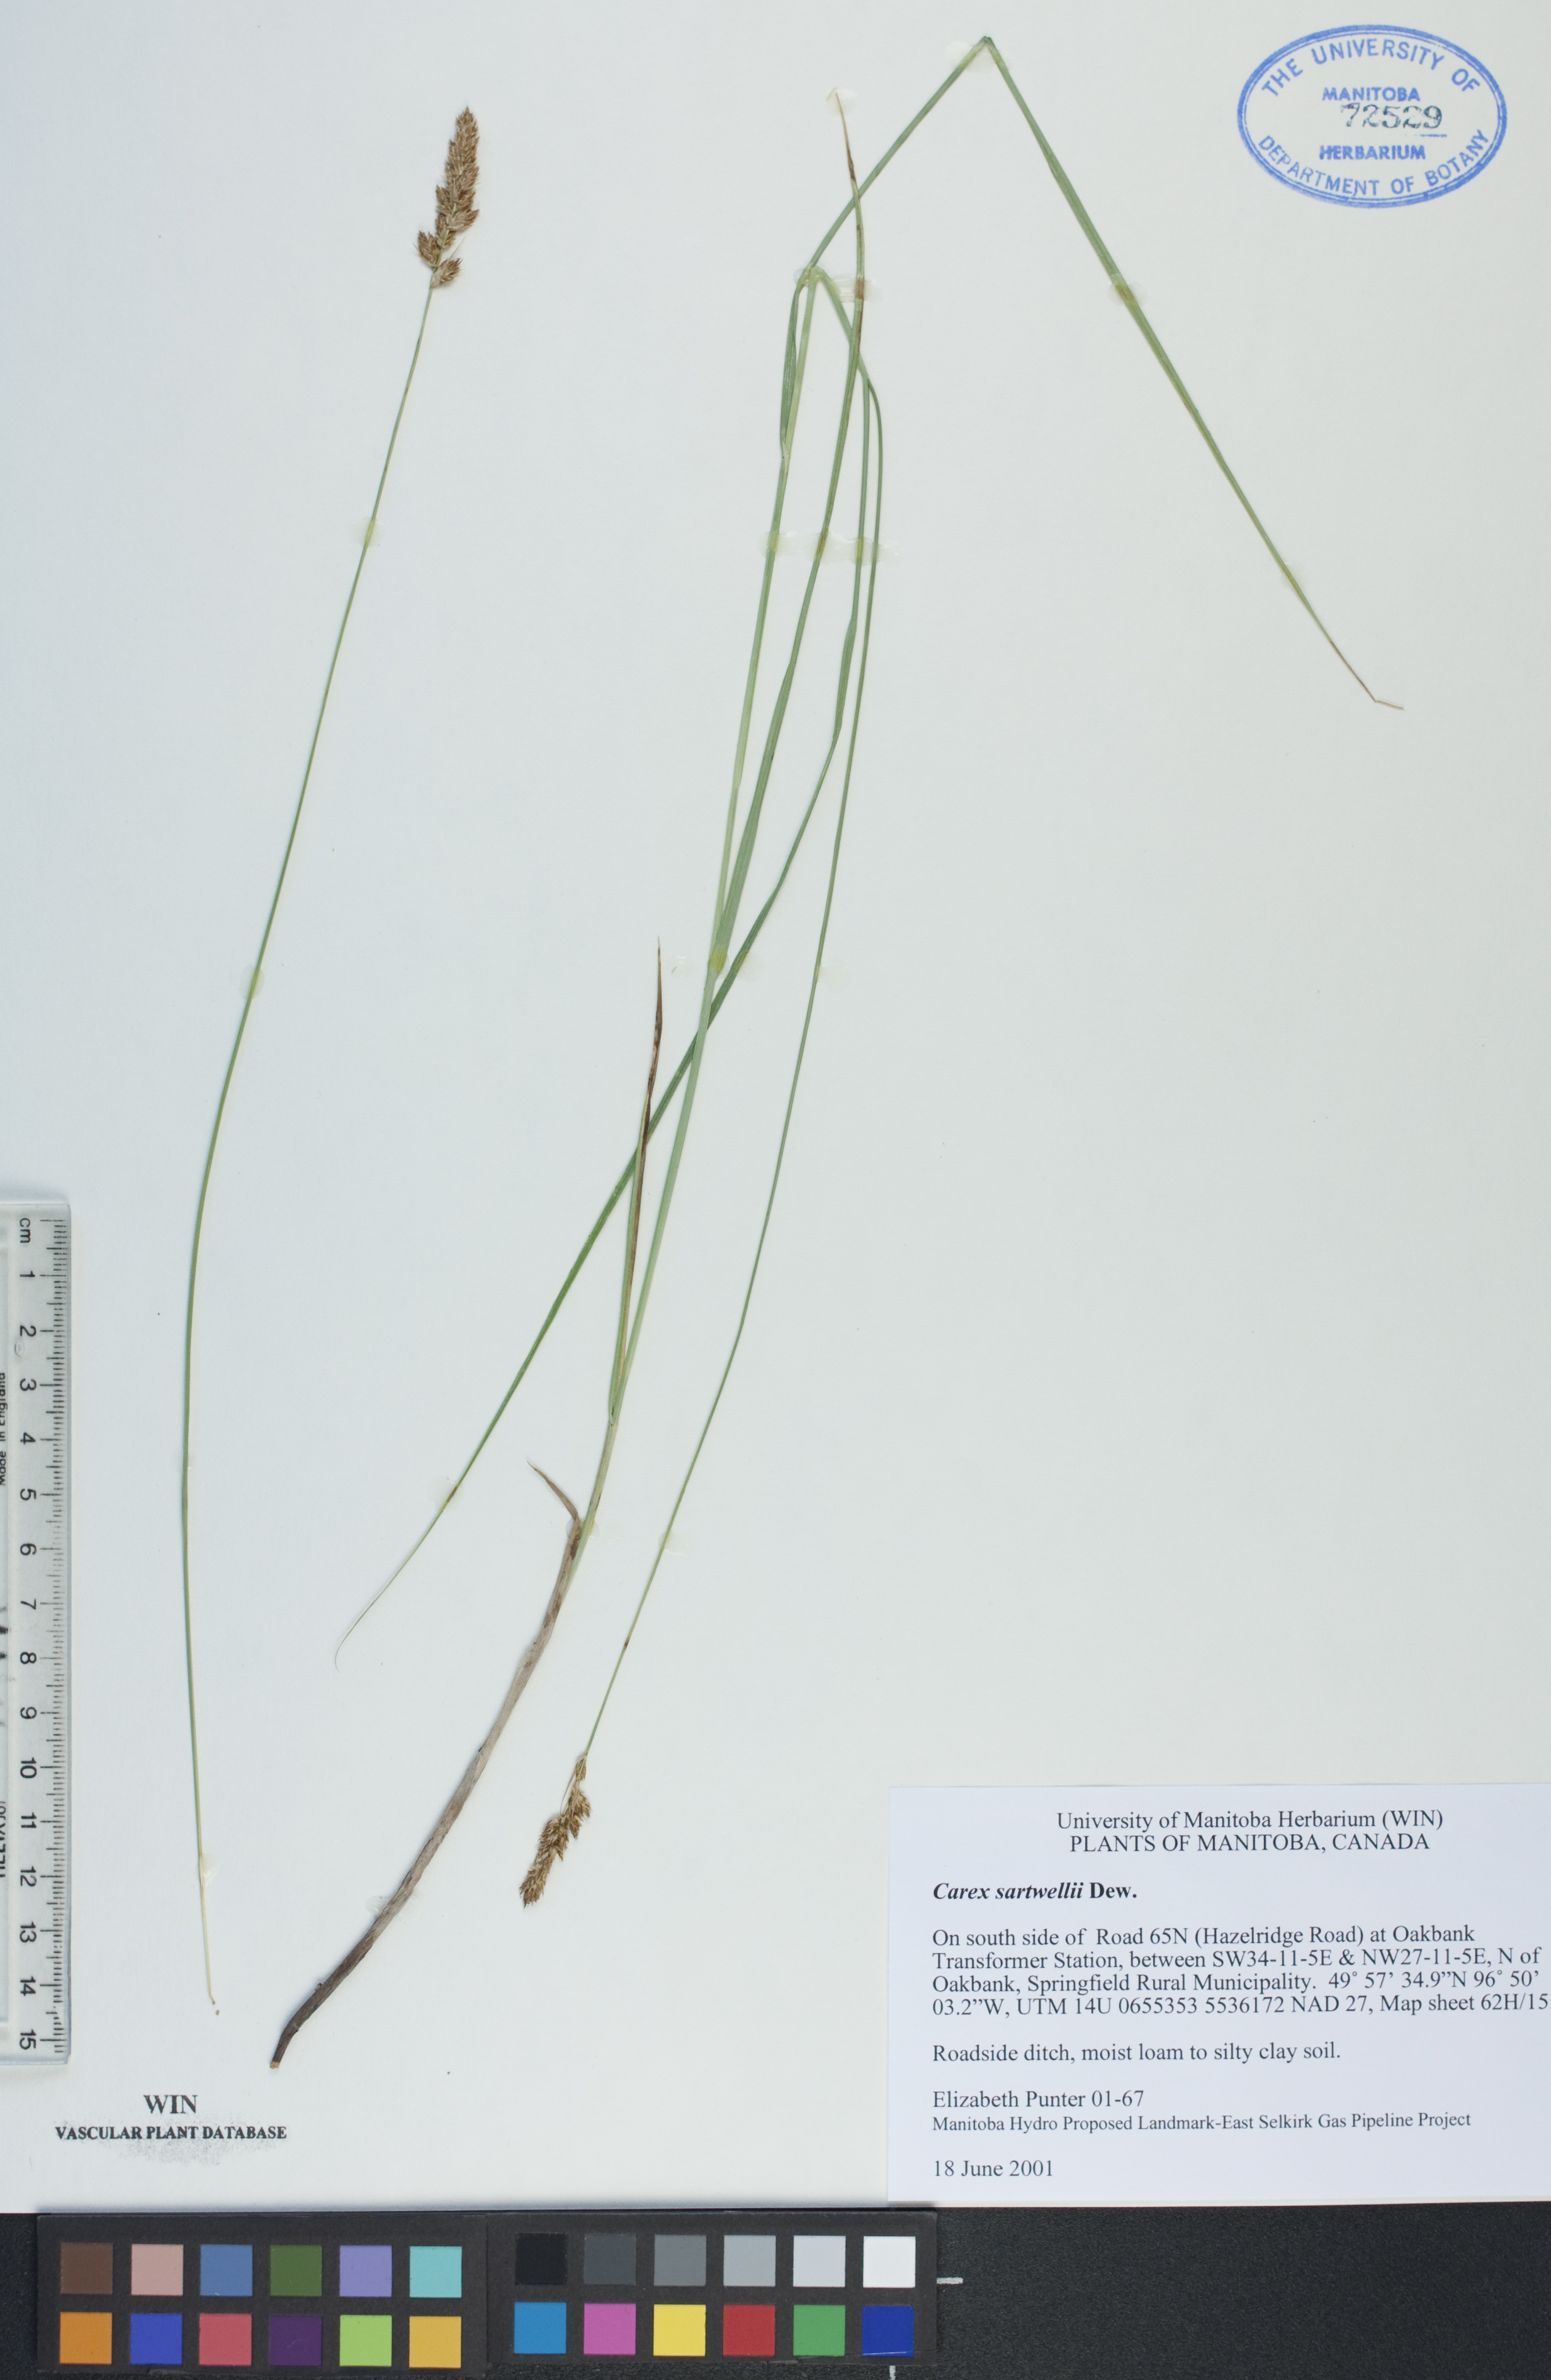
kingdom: Plantae
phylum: Tracheophyta
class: Liliopsida
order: Poales
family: Cyperaceae
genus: Carex
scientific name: Carex sartwellii
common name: Sartwell's sedge
